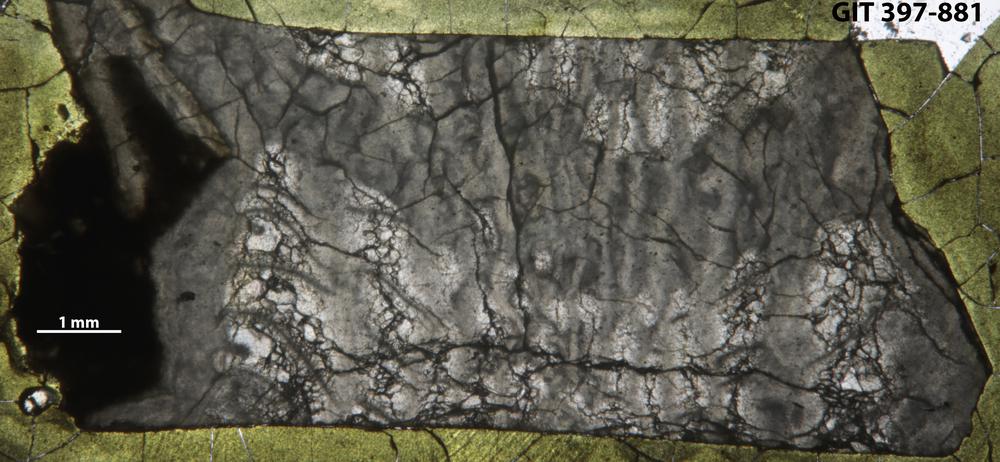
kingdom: Animalia
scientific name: Animalia
